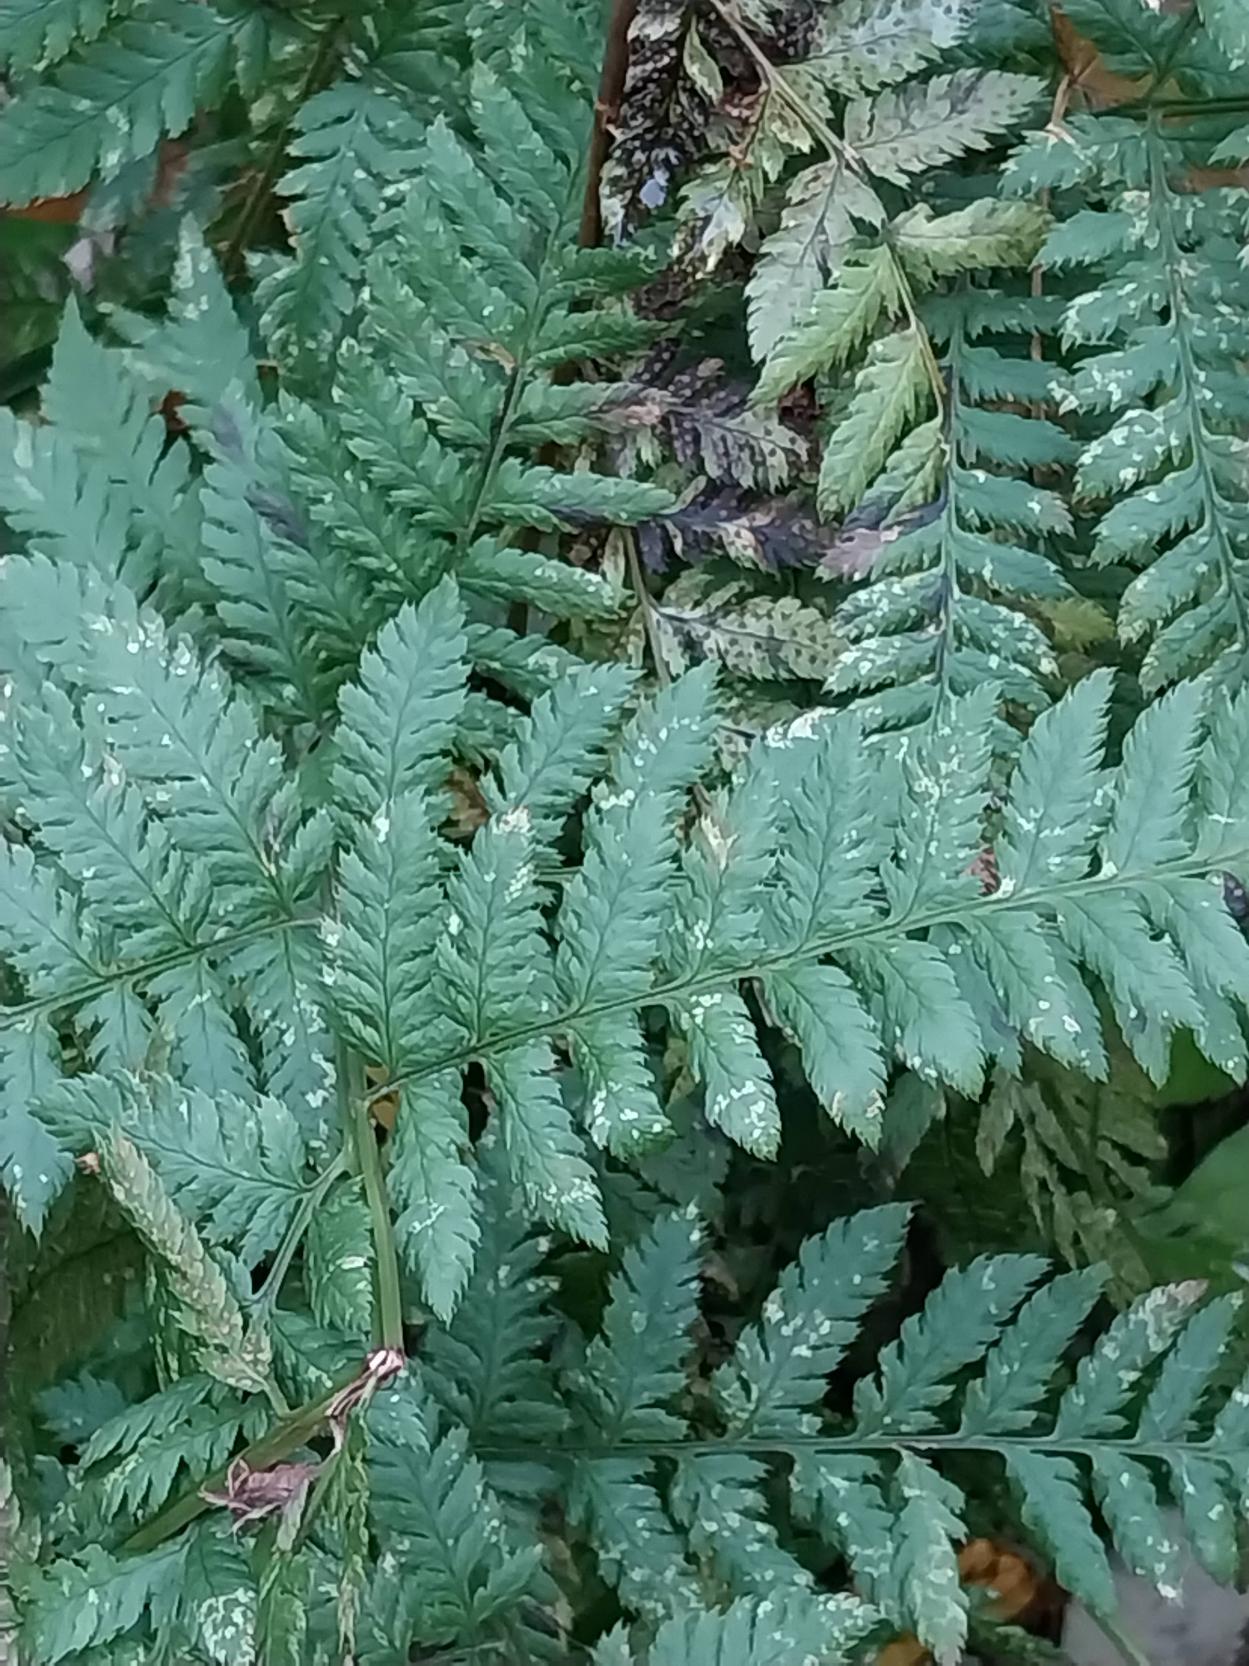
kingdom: Plantae
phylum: Tracheophyta
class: Polypodiopsida
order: Polypodiales
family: Dryopteridaceae
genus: Dryopteris
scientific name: Dryopteris dilatata
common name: Bredbladet mangeløv
